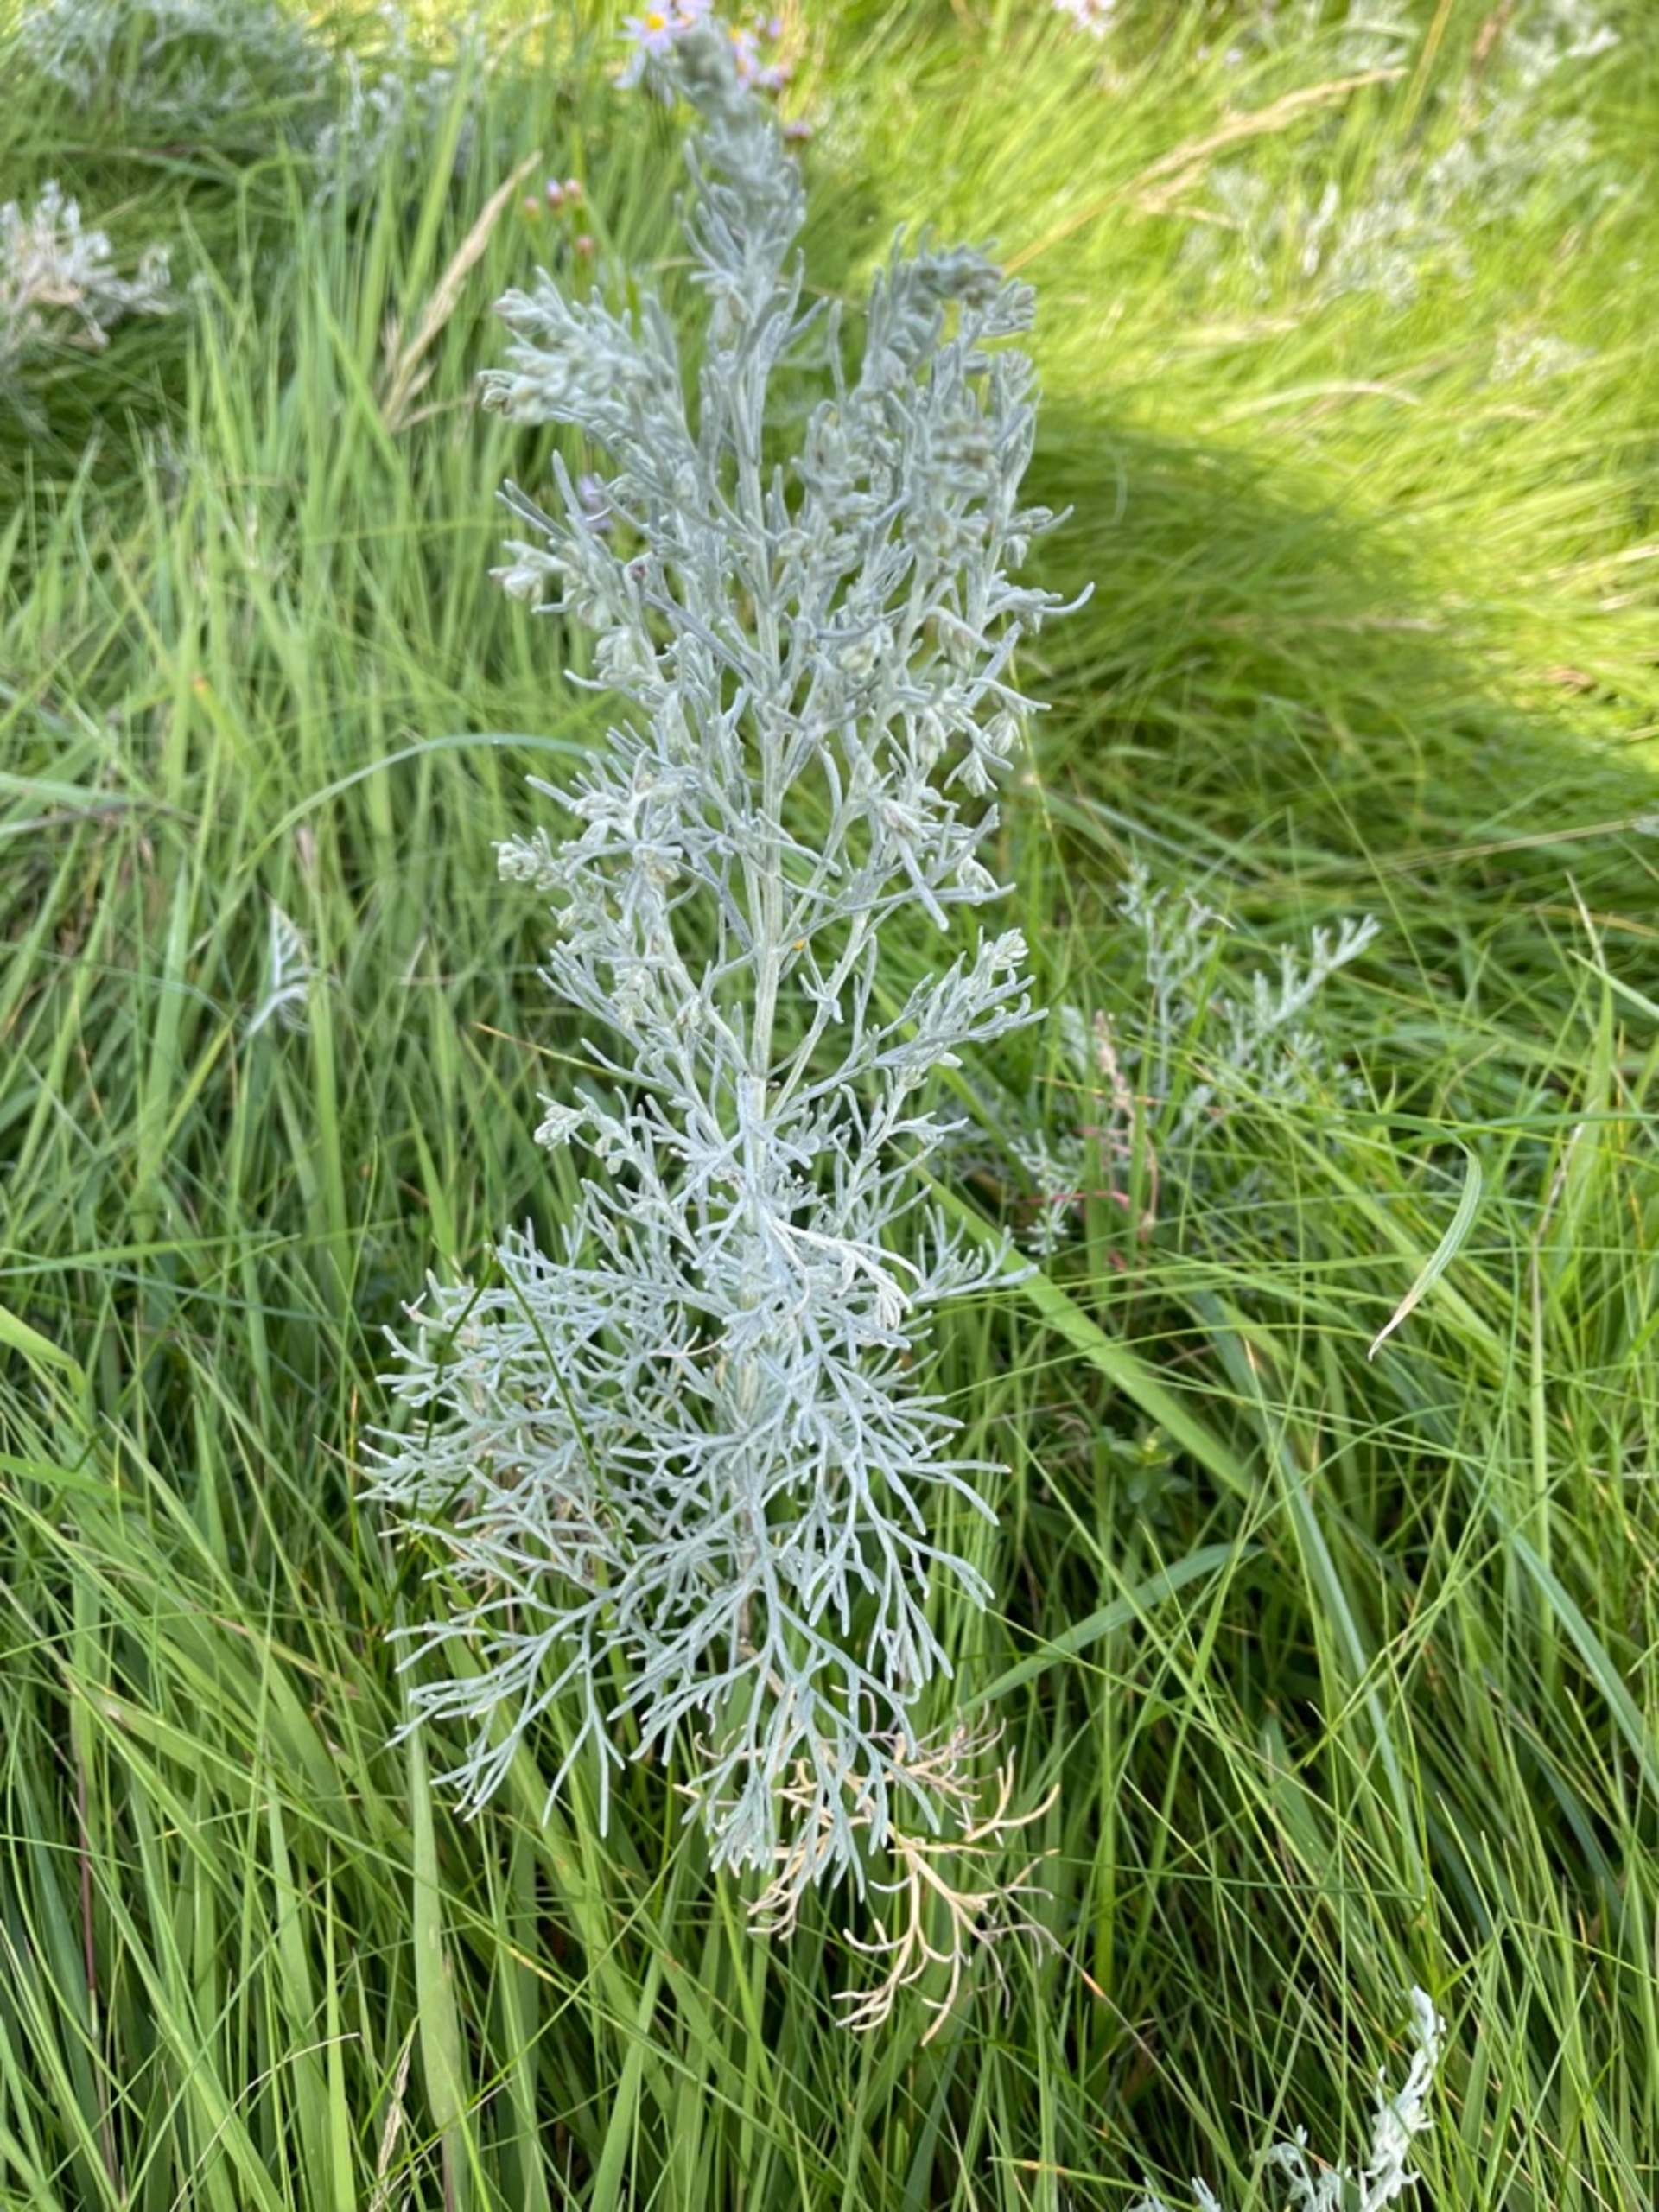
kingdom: Plantae
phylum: Tracheophyta
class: Magnoliopsida
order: Asterales
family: Asteraceae
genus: Artemisia
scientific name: Artemisia maritima
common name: Strandmalurt
